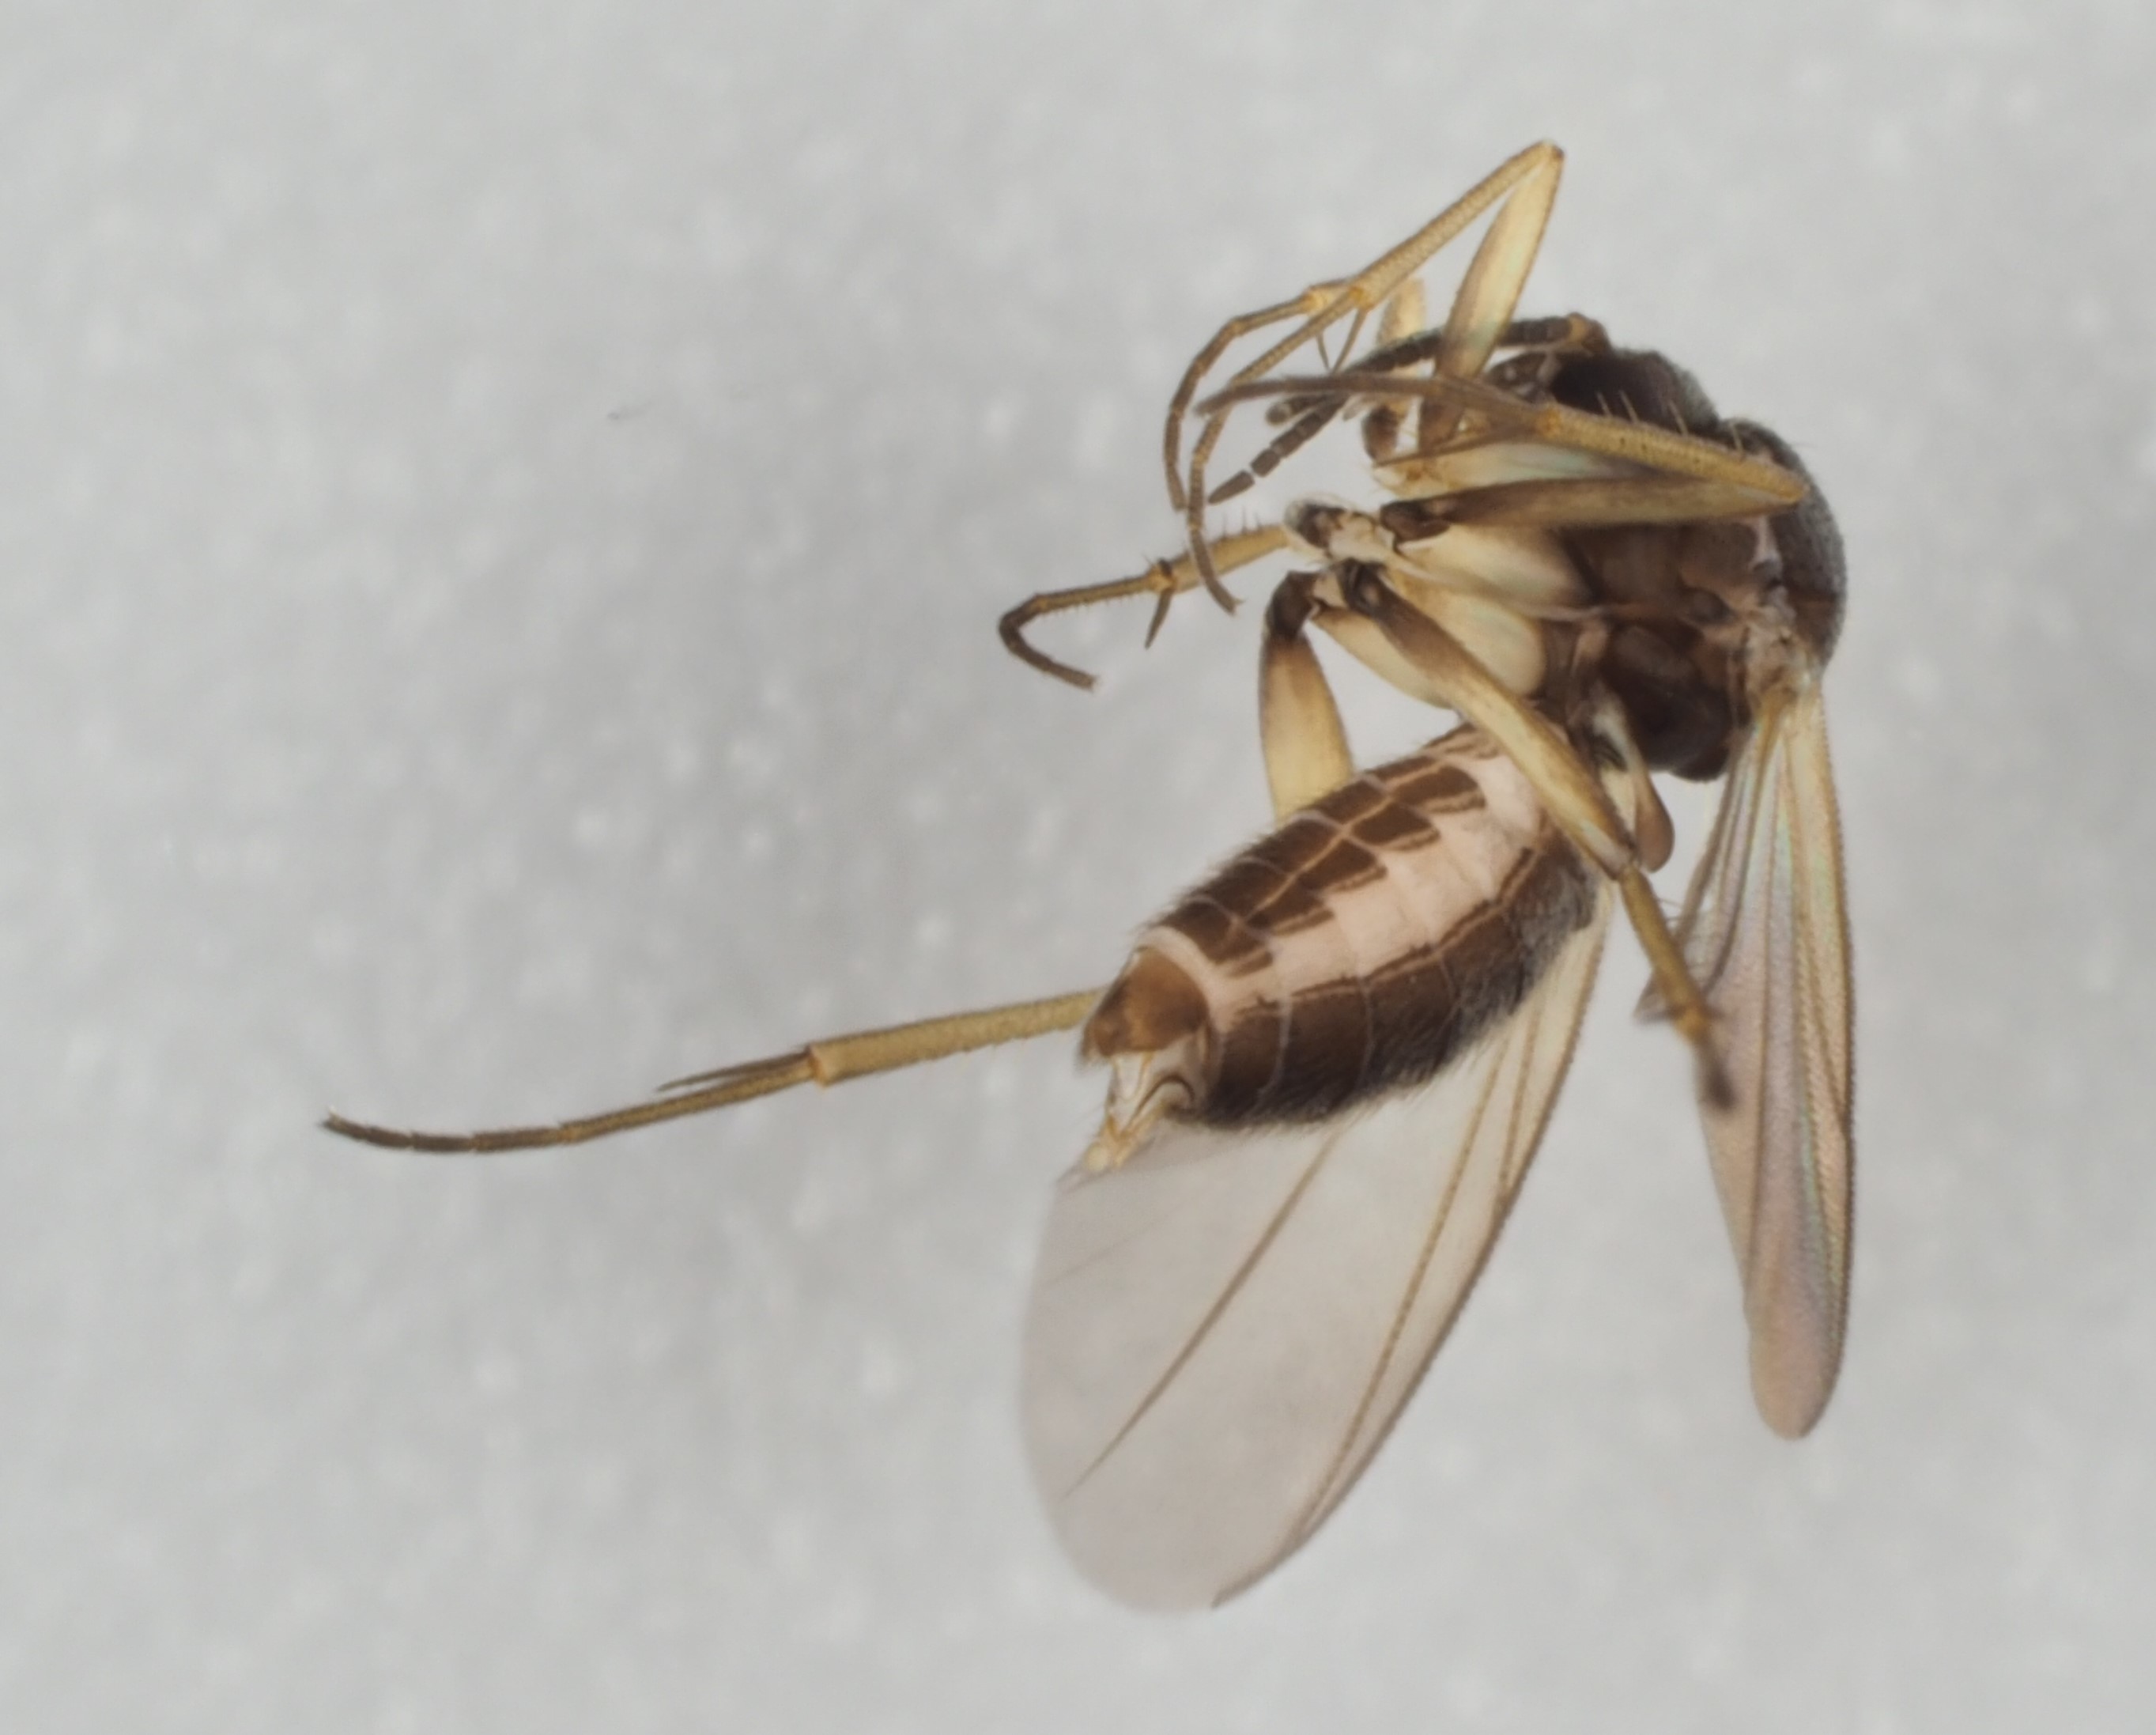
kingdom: Animalia
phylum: Arthropoda
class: Insecta
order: Diptera
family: Mycetophilidae
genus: Azana
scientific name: Azana anomala
